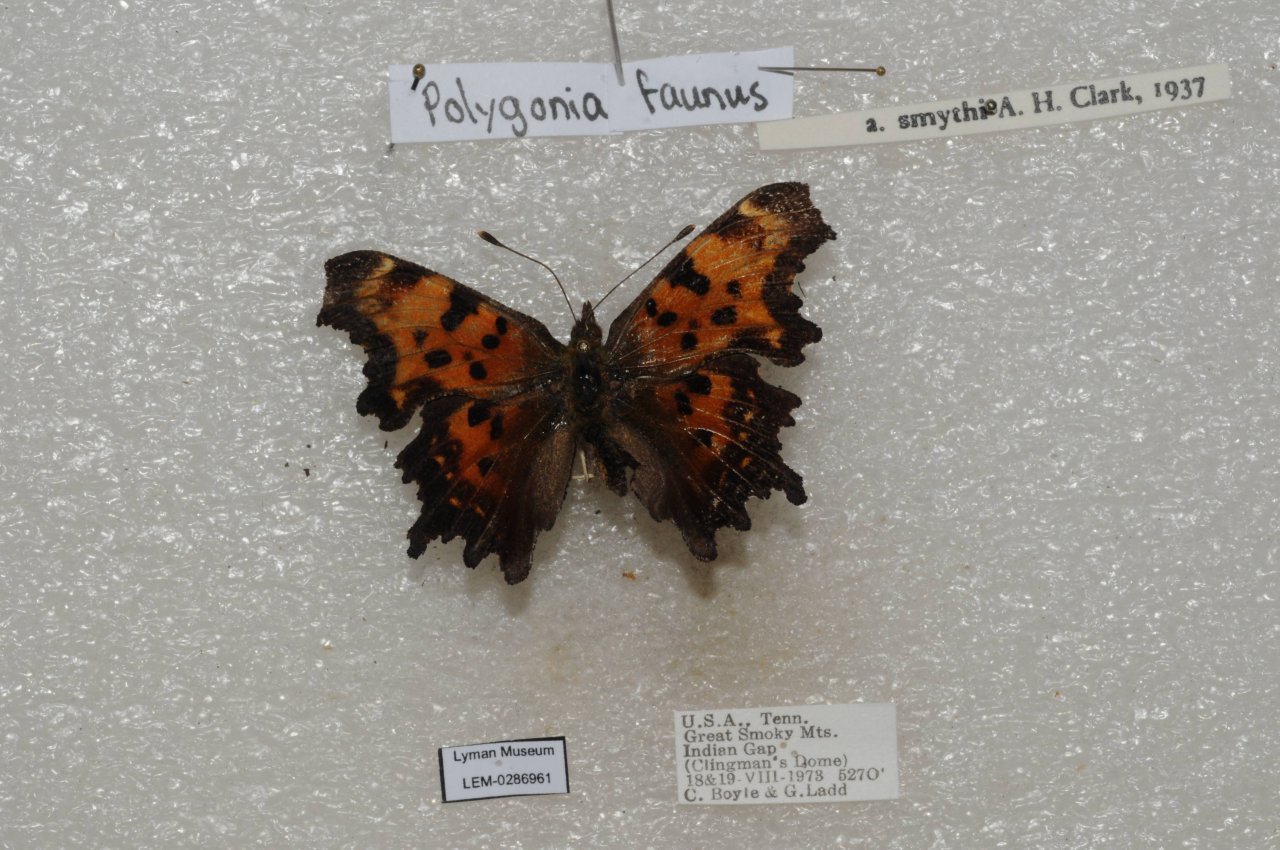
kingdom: Animalia
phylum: Arthropoda
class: Insecta
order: Lepidoptera
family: Nymphalidae
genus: Polygonia
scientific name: Polygonia faunus
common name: Green Comma
